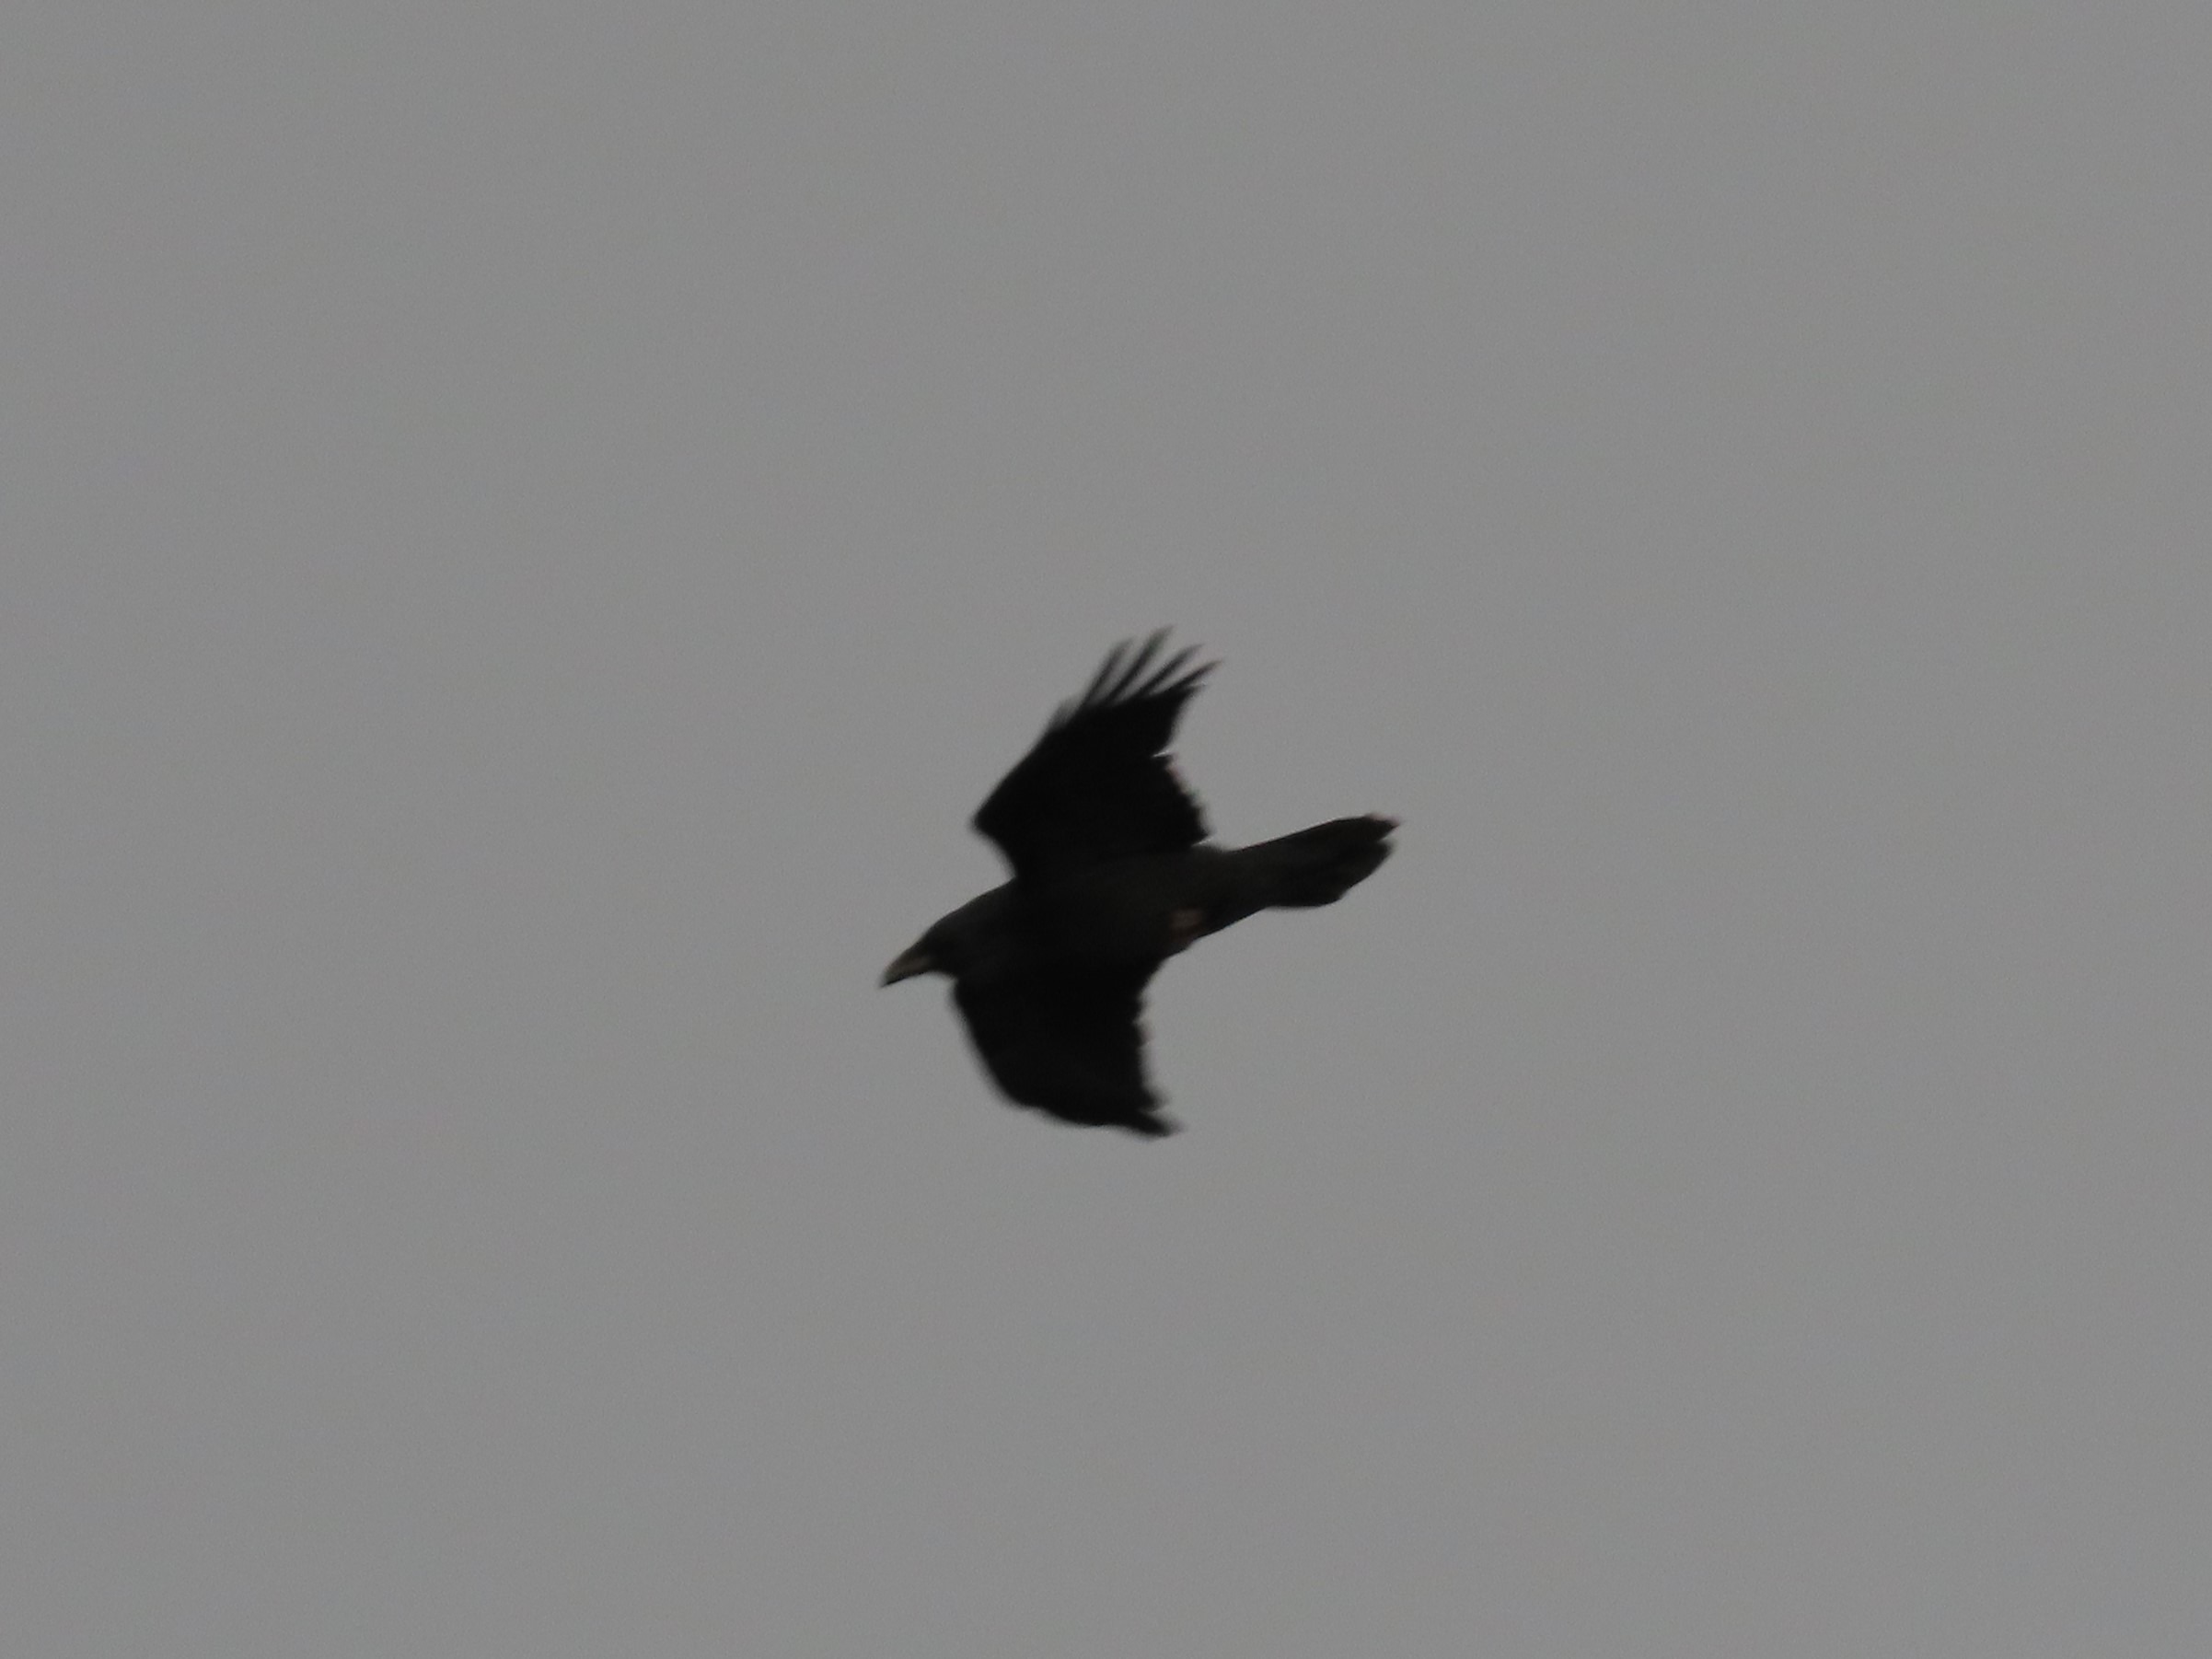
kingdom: Animalia
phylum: Chordata
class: Aves
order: Passeriformes
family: Corvidae
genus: Corvus
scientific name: Corvus corax
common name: Ravn
